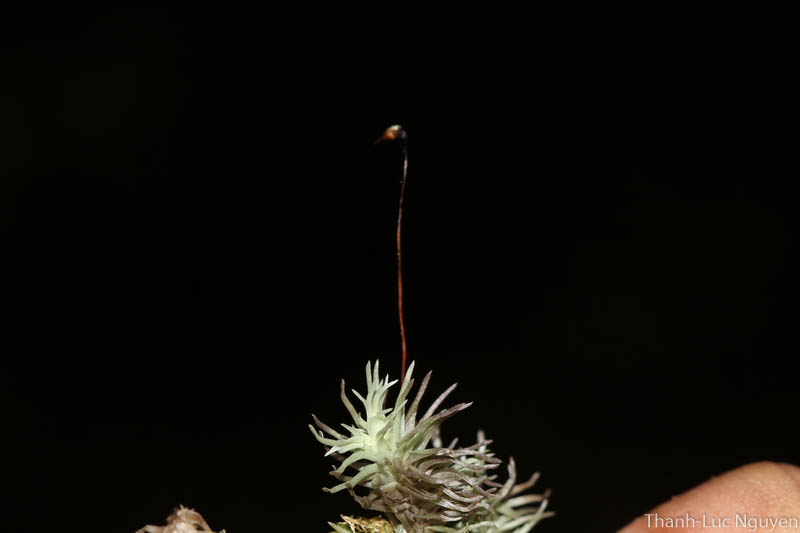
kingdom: Plantae
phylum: Bryophyta
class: Bryopsida
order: Dicranales
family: Leucobryaceae
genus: Leucobryum
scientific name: Leucobryum javense
